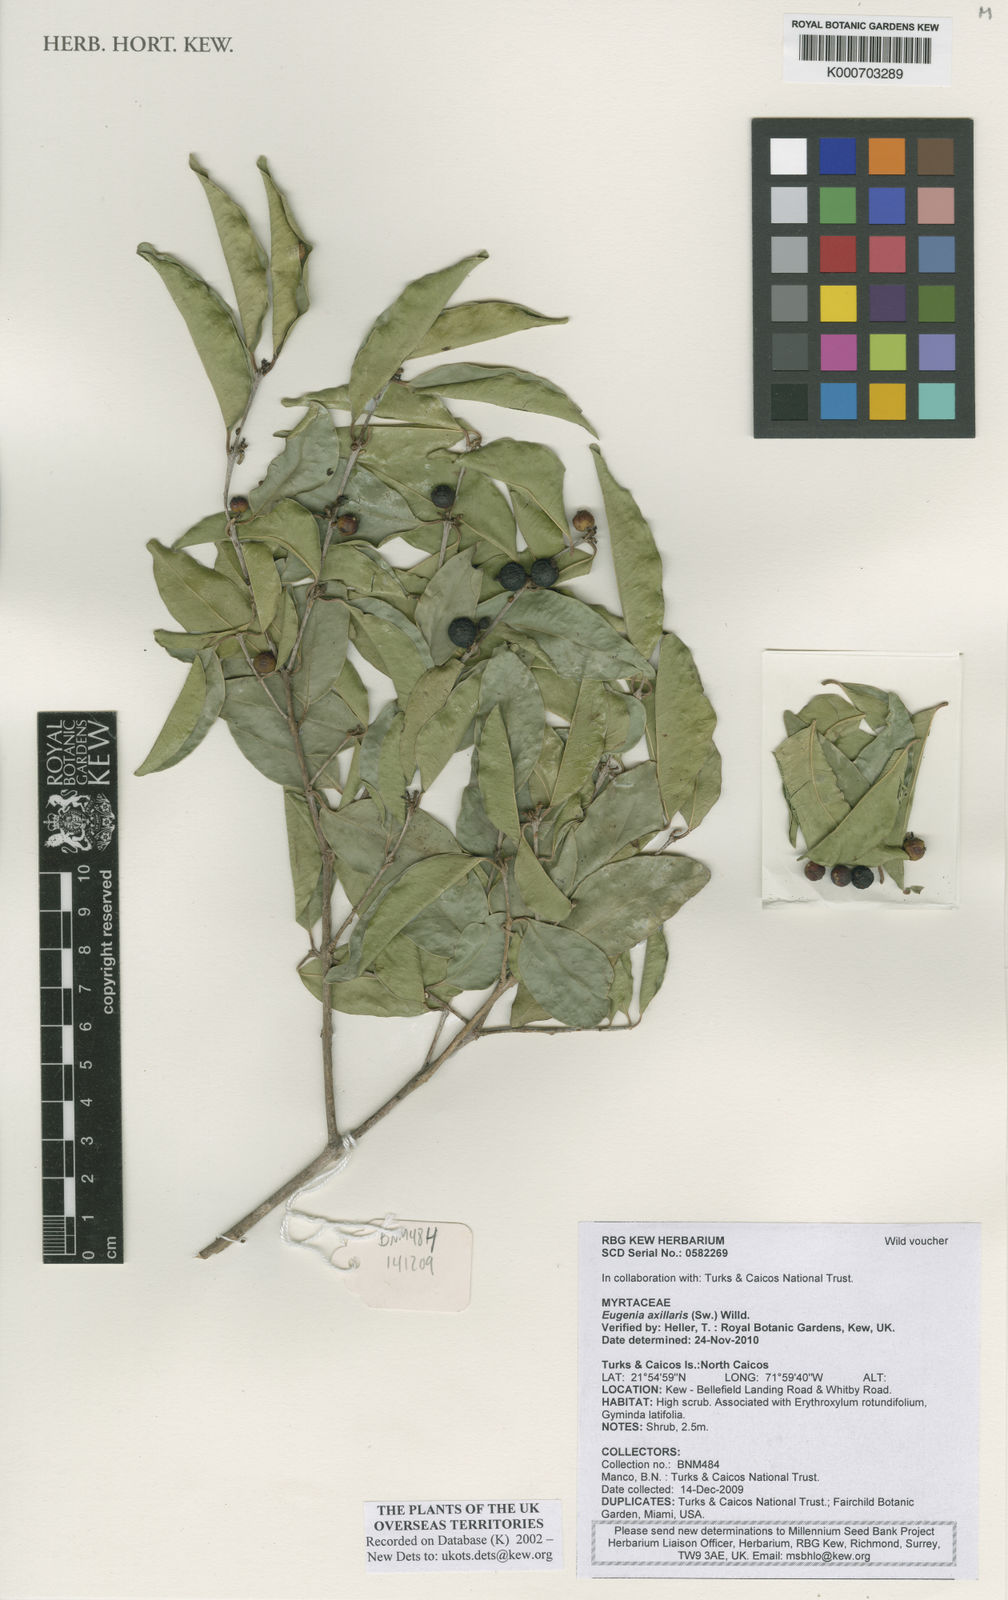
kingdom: Plantae
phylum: Tracheophyta
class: Magnoliopsida
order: Myrtales
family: Myrtaceae
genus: Eugenia
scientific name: Eugenia axillaris
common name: Choaky berry
